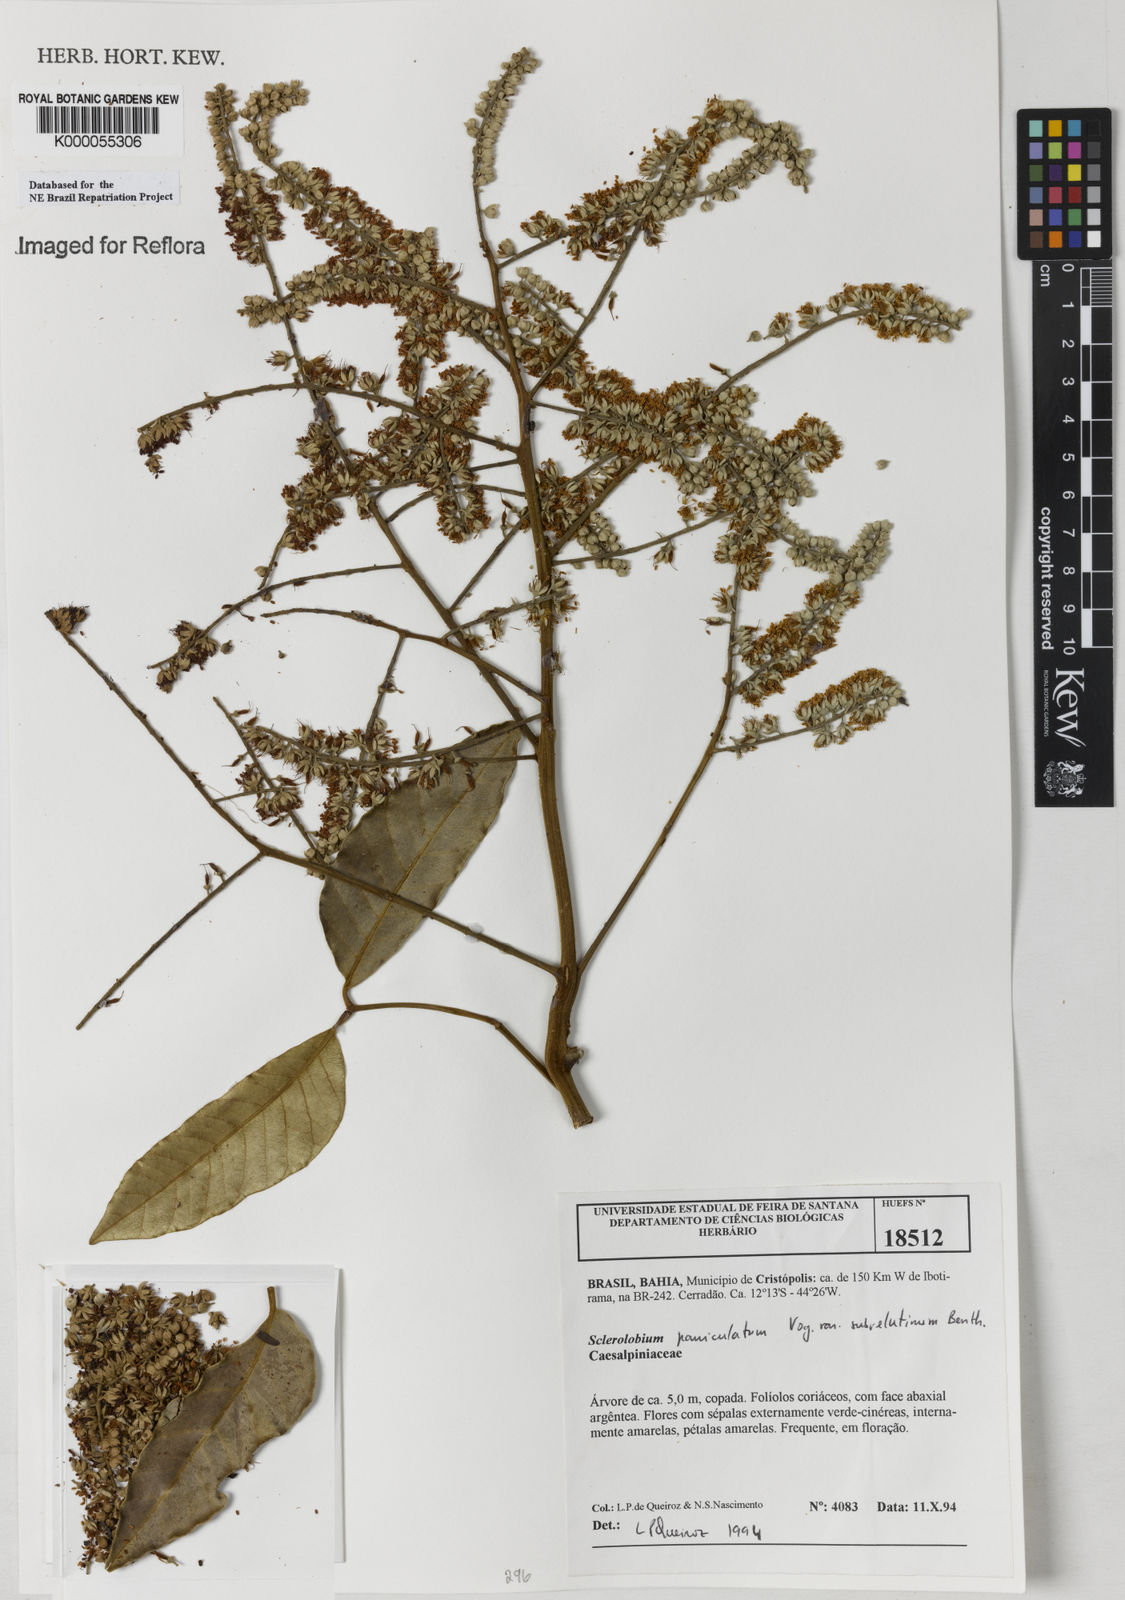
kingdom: Plantae
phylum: Tracheophyta
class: Magnoliopsida
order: Fabales
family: Fabaceae
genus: Tachigali
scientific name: Tachigali subvelutina
